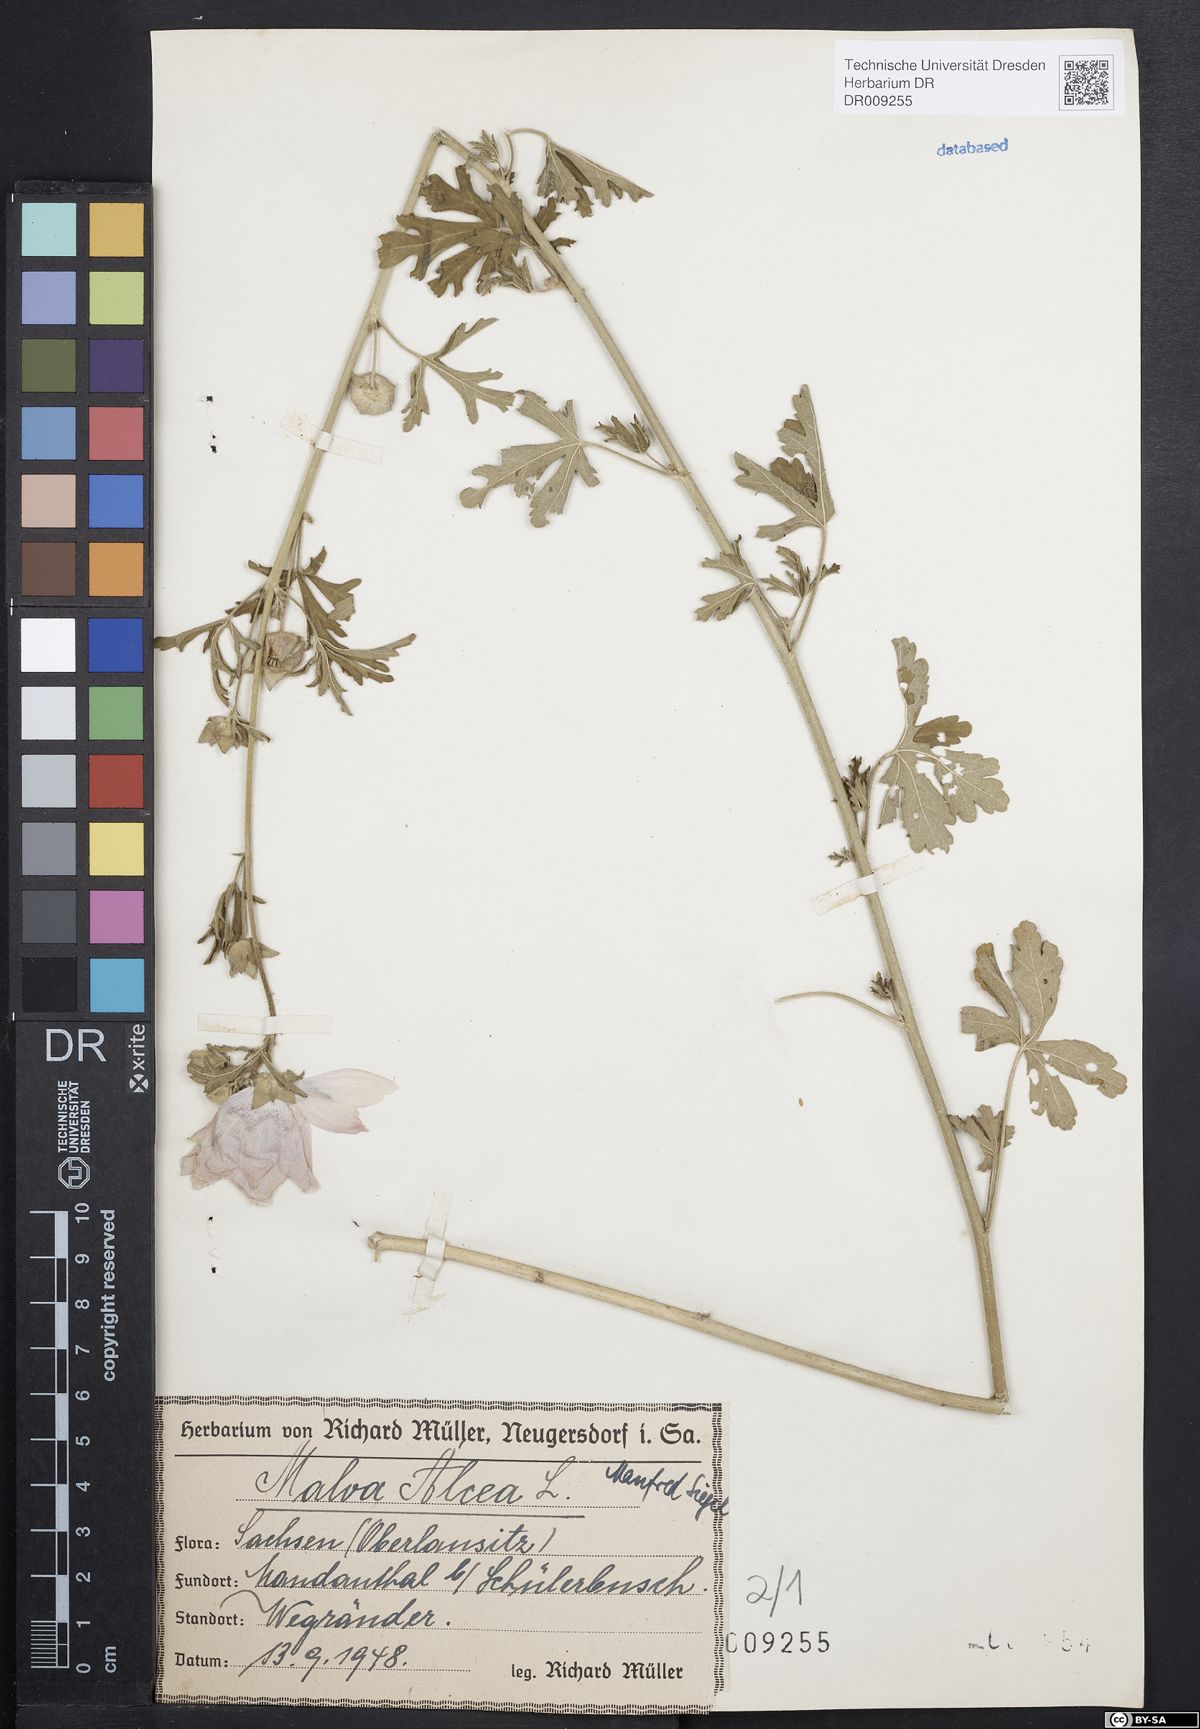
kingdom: Plantae
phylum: Tracheophyta
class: Magnoliopsida
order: Malvales
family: Malvaceae
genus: Malva
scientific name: Malva alcea
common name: Greater musk-mallow
